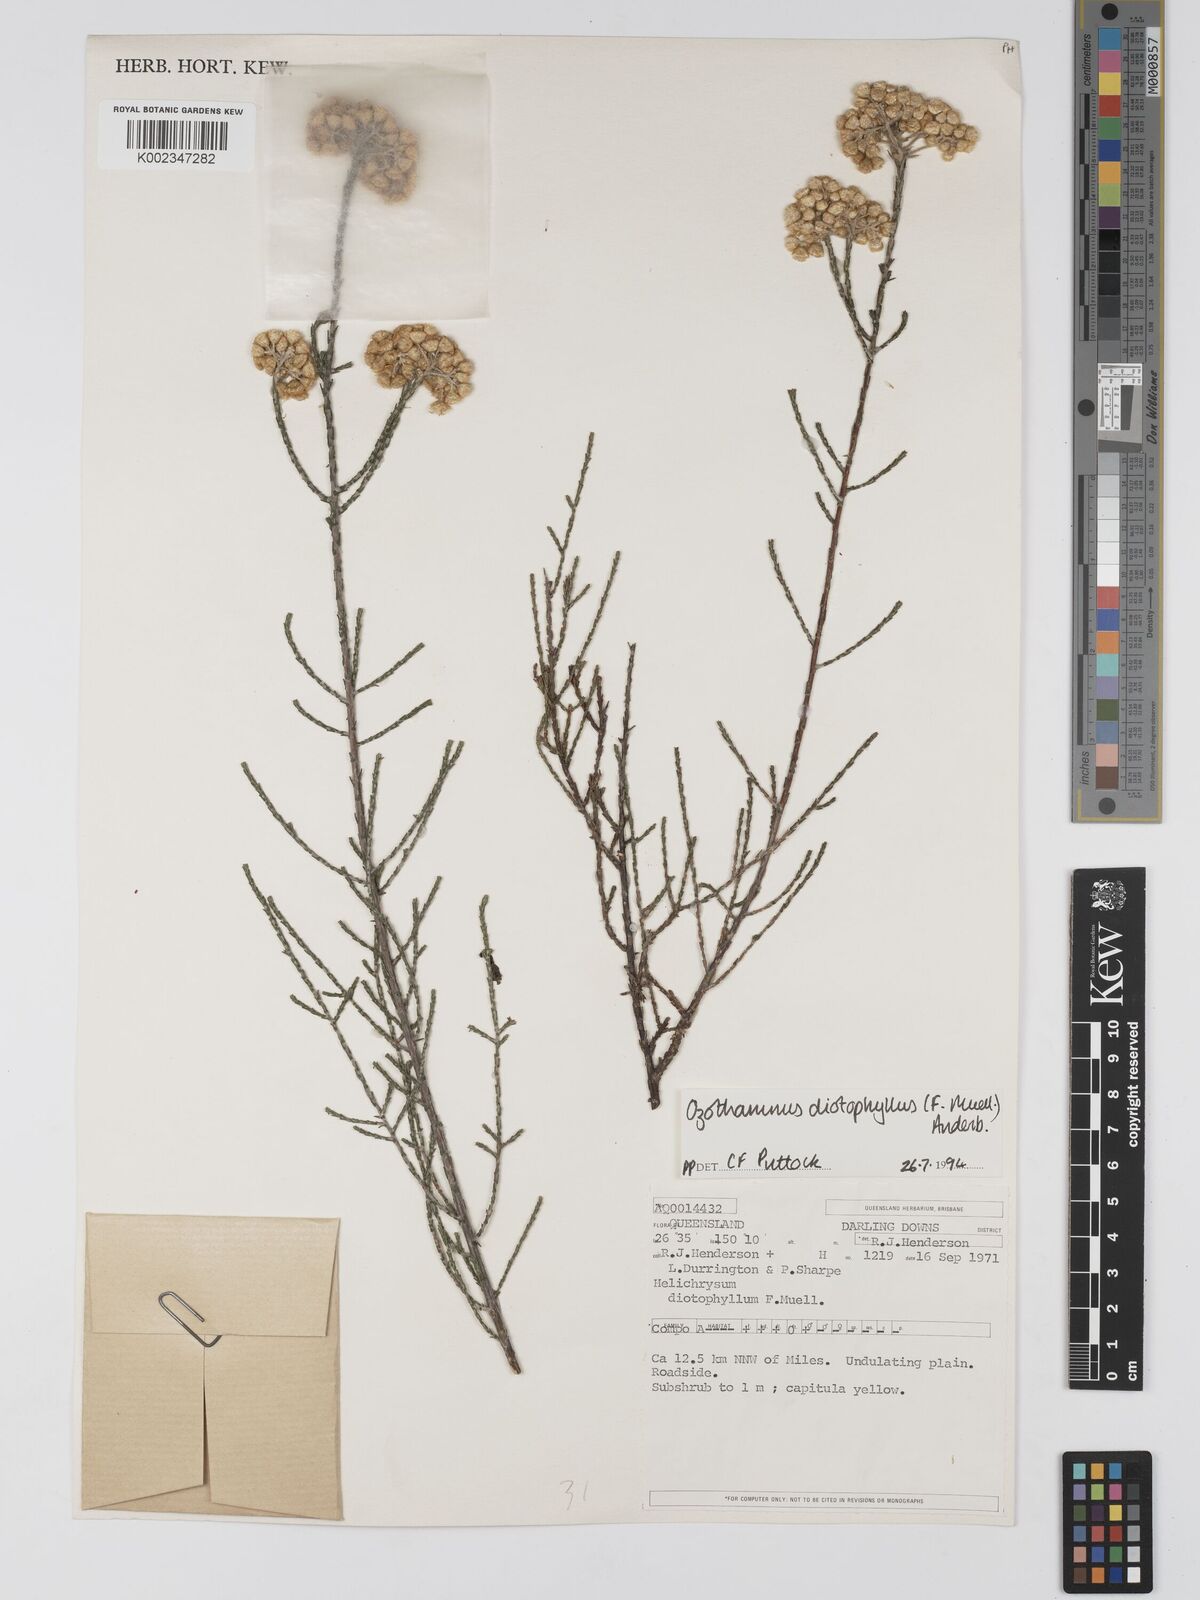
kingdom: Plantae
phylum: Tracheophyta
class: Magnoliopsida
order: Asterales
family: Asteraceae
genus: Ozothamnus
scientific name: Ozothamnus diotophyllus
